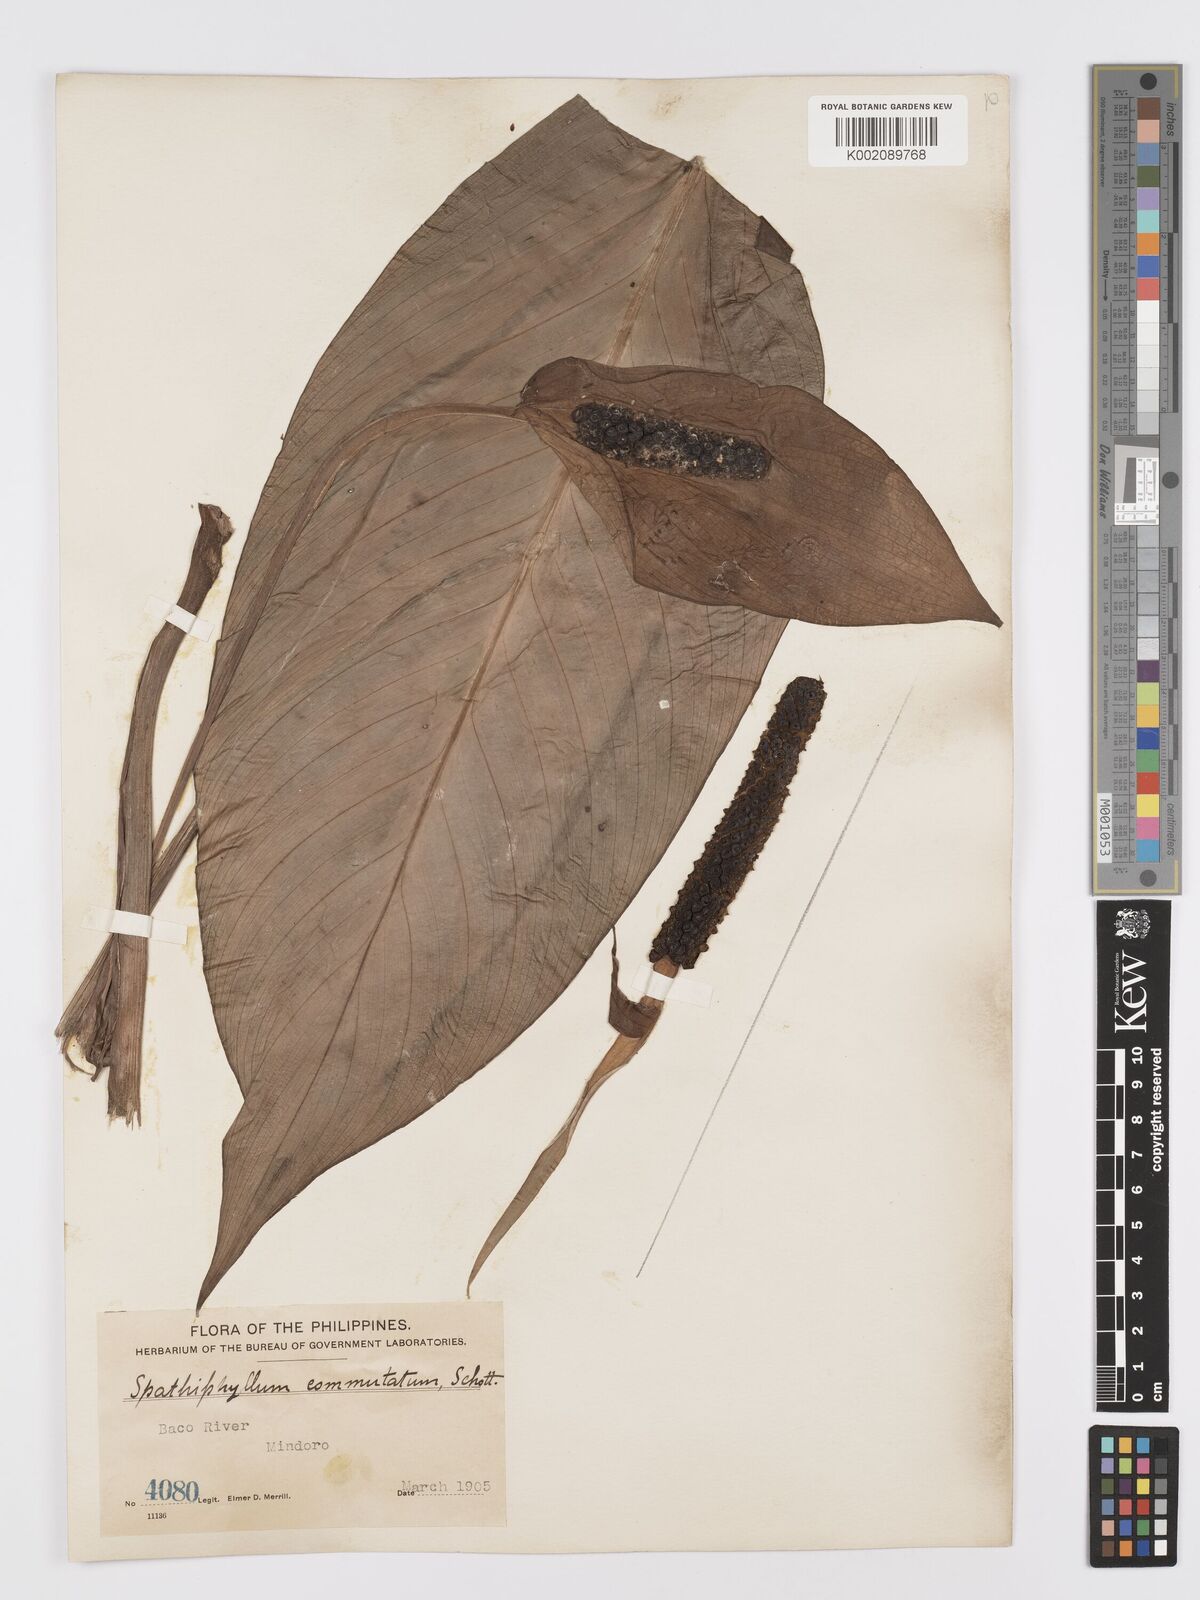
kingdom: Plantae
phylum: Tracheophyta
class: Liliopsida
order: Alismatales
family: Araceae
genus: Spathiphyllum
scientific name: Spathiphyllum commutatum
